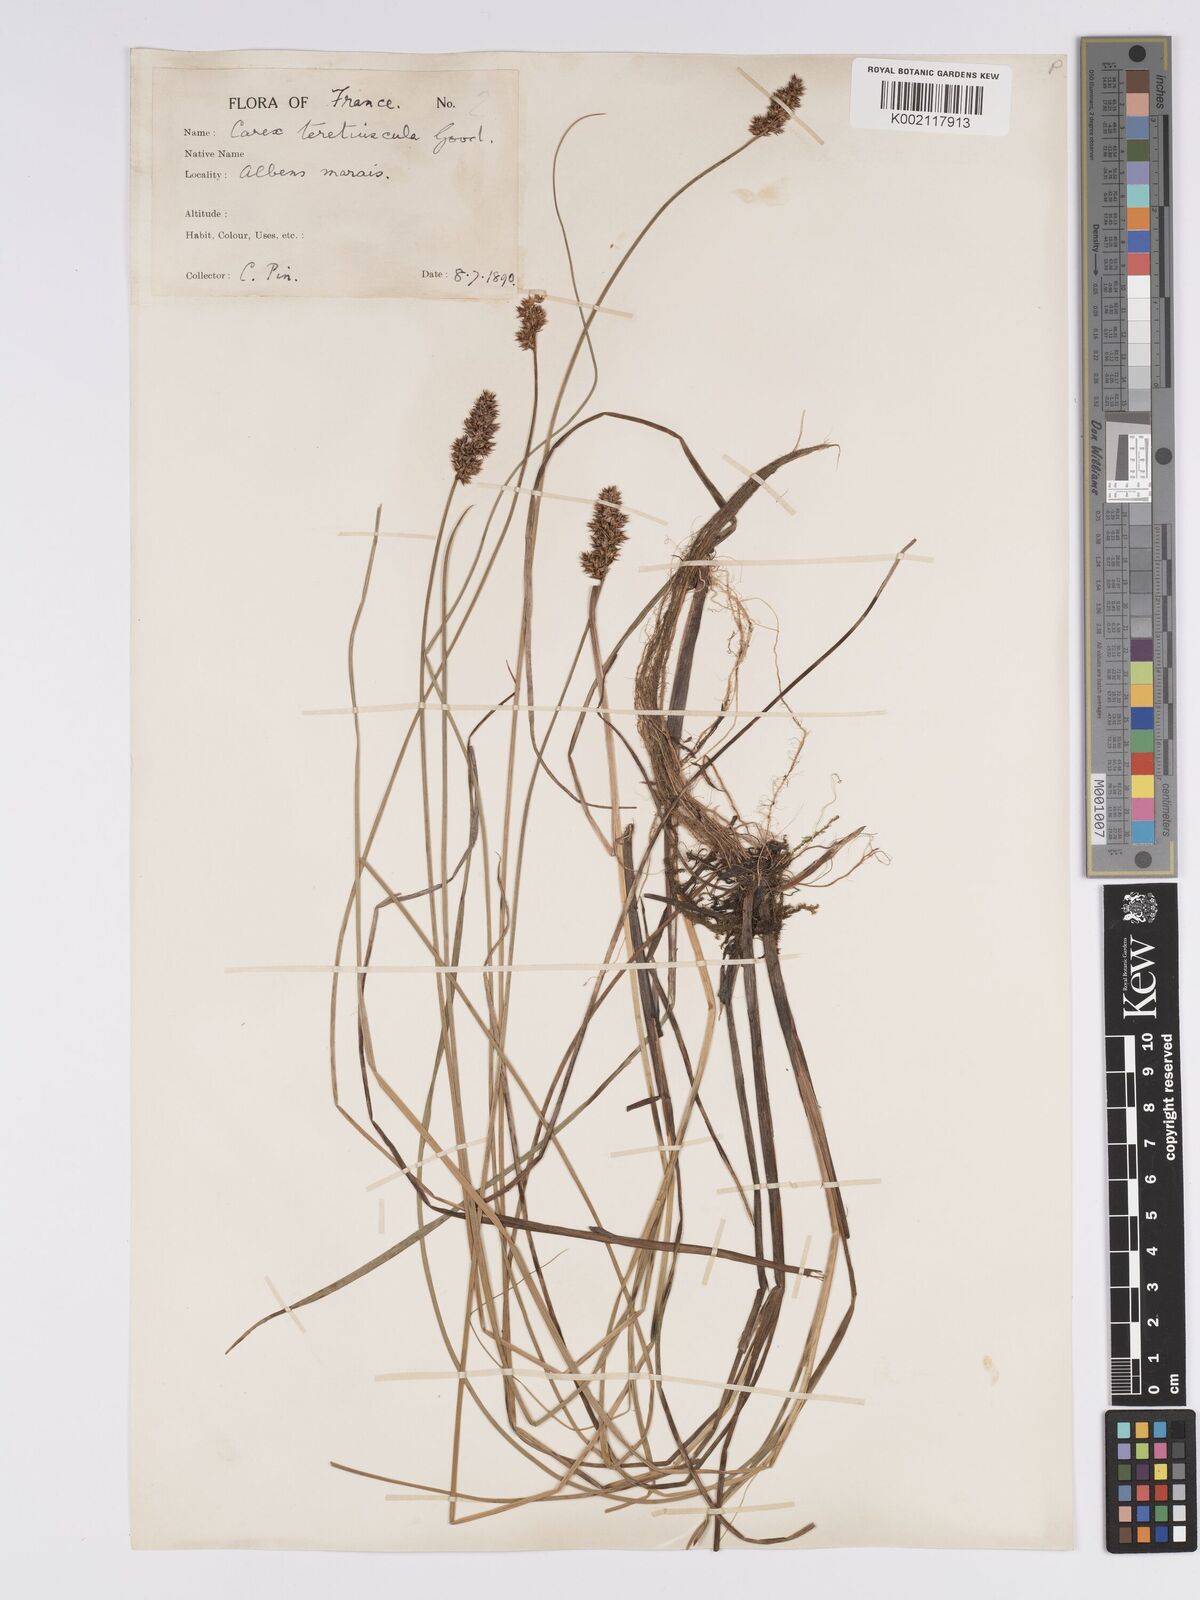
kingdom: Plantae
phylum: Tracheophyta
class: Liliopsida
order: Poales
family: Cyperaceae
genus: Carex
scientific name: Carex diandra
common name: Lesser tussock-sedge
